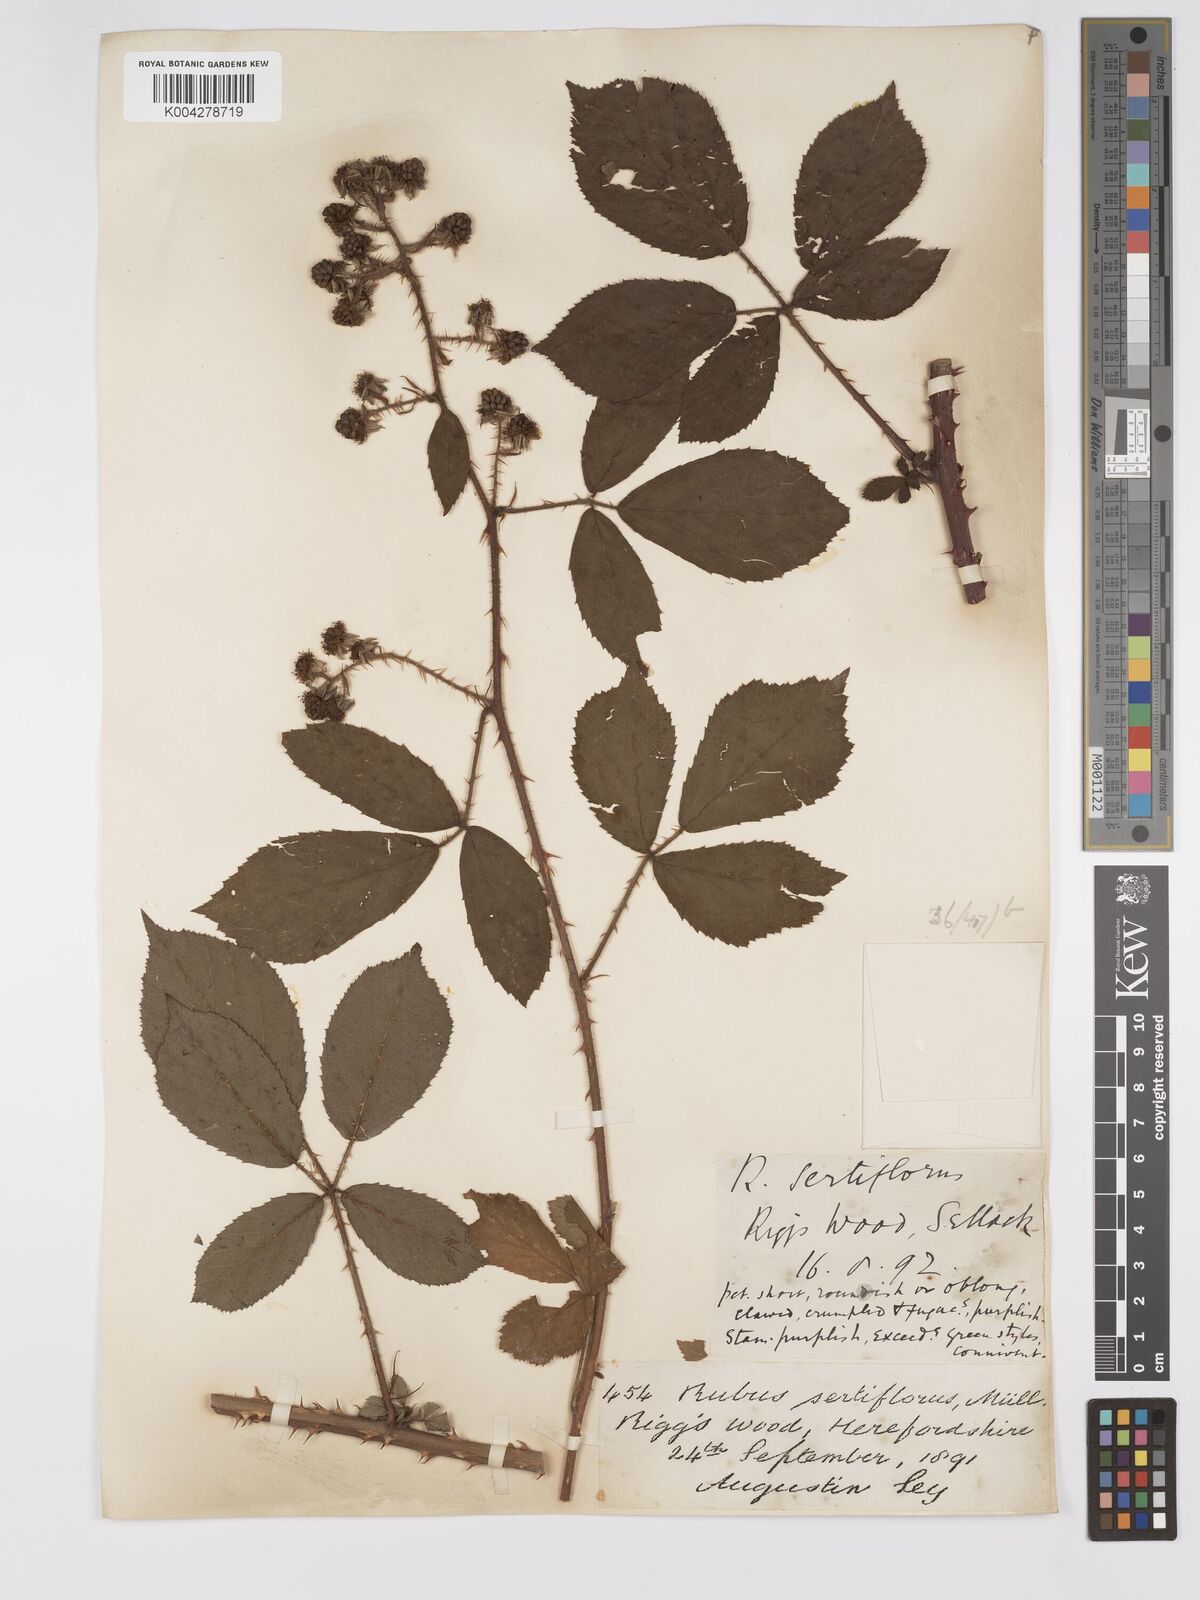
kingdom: Plantae
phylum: Tracheophyta
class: Magnoliopsida
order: Rosales
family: Rosaceae
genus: Rubus
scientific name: Rubus
